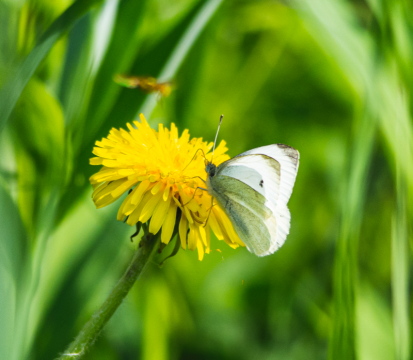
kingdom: Animalia
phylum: Arthropoda
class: Insecta
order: Lepidoptera
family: Pieridae
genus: Pieris
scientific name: Pieris rapae
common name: Cabbage White
